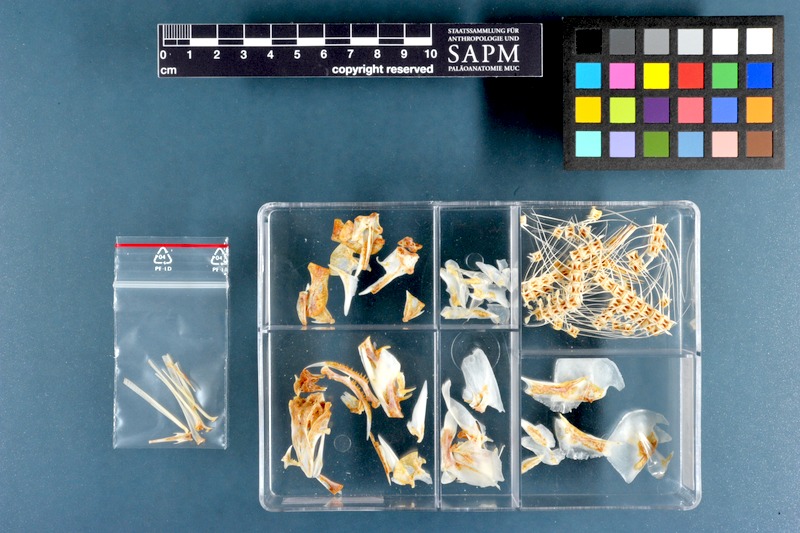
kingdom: Animalia
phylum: Chordata
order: Clupeiformes
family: Chirocentridae
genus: Chirocentrus
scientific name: Chirocentrus dorab
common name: Wolf herring
